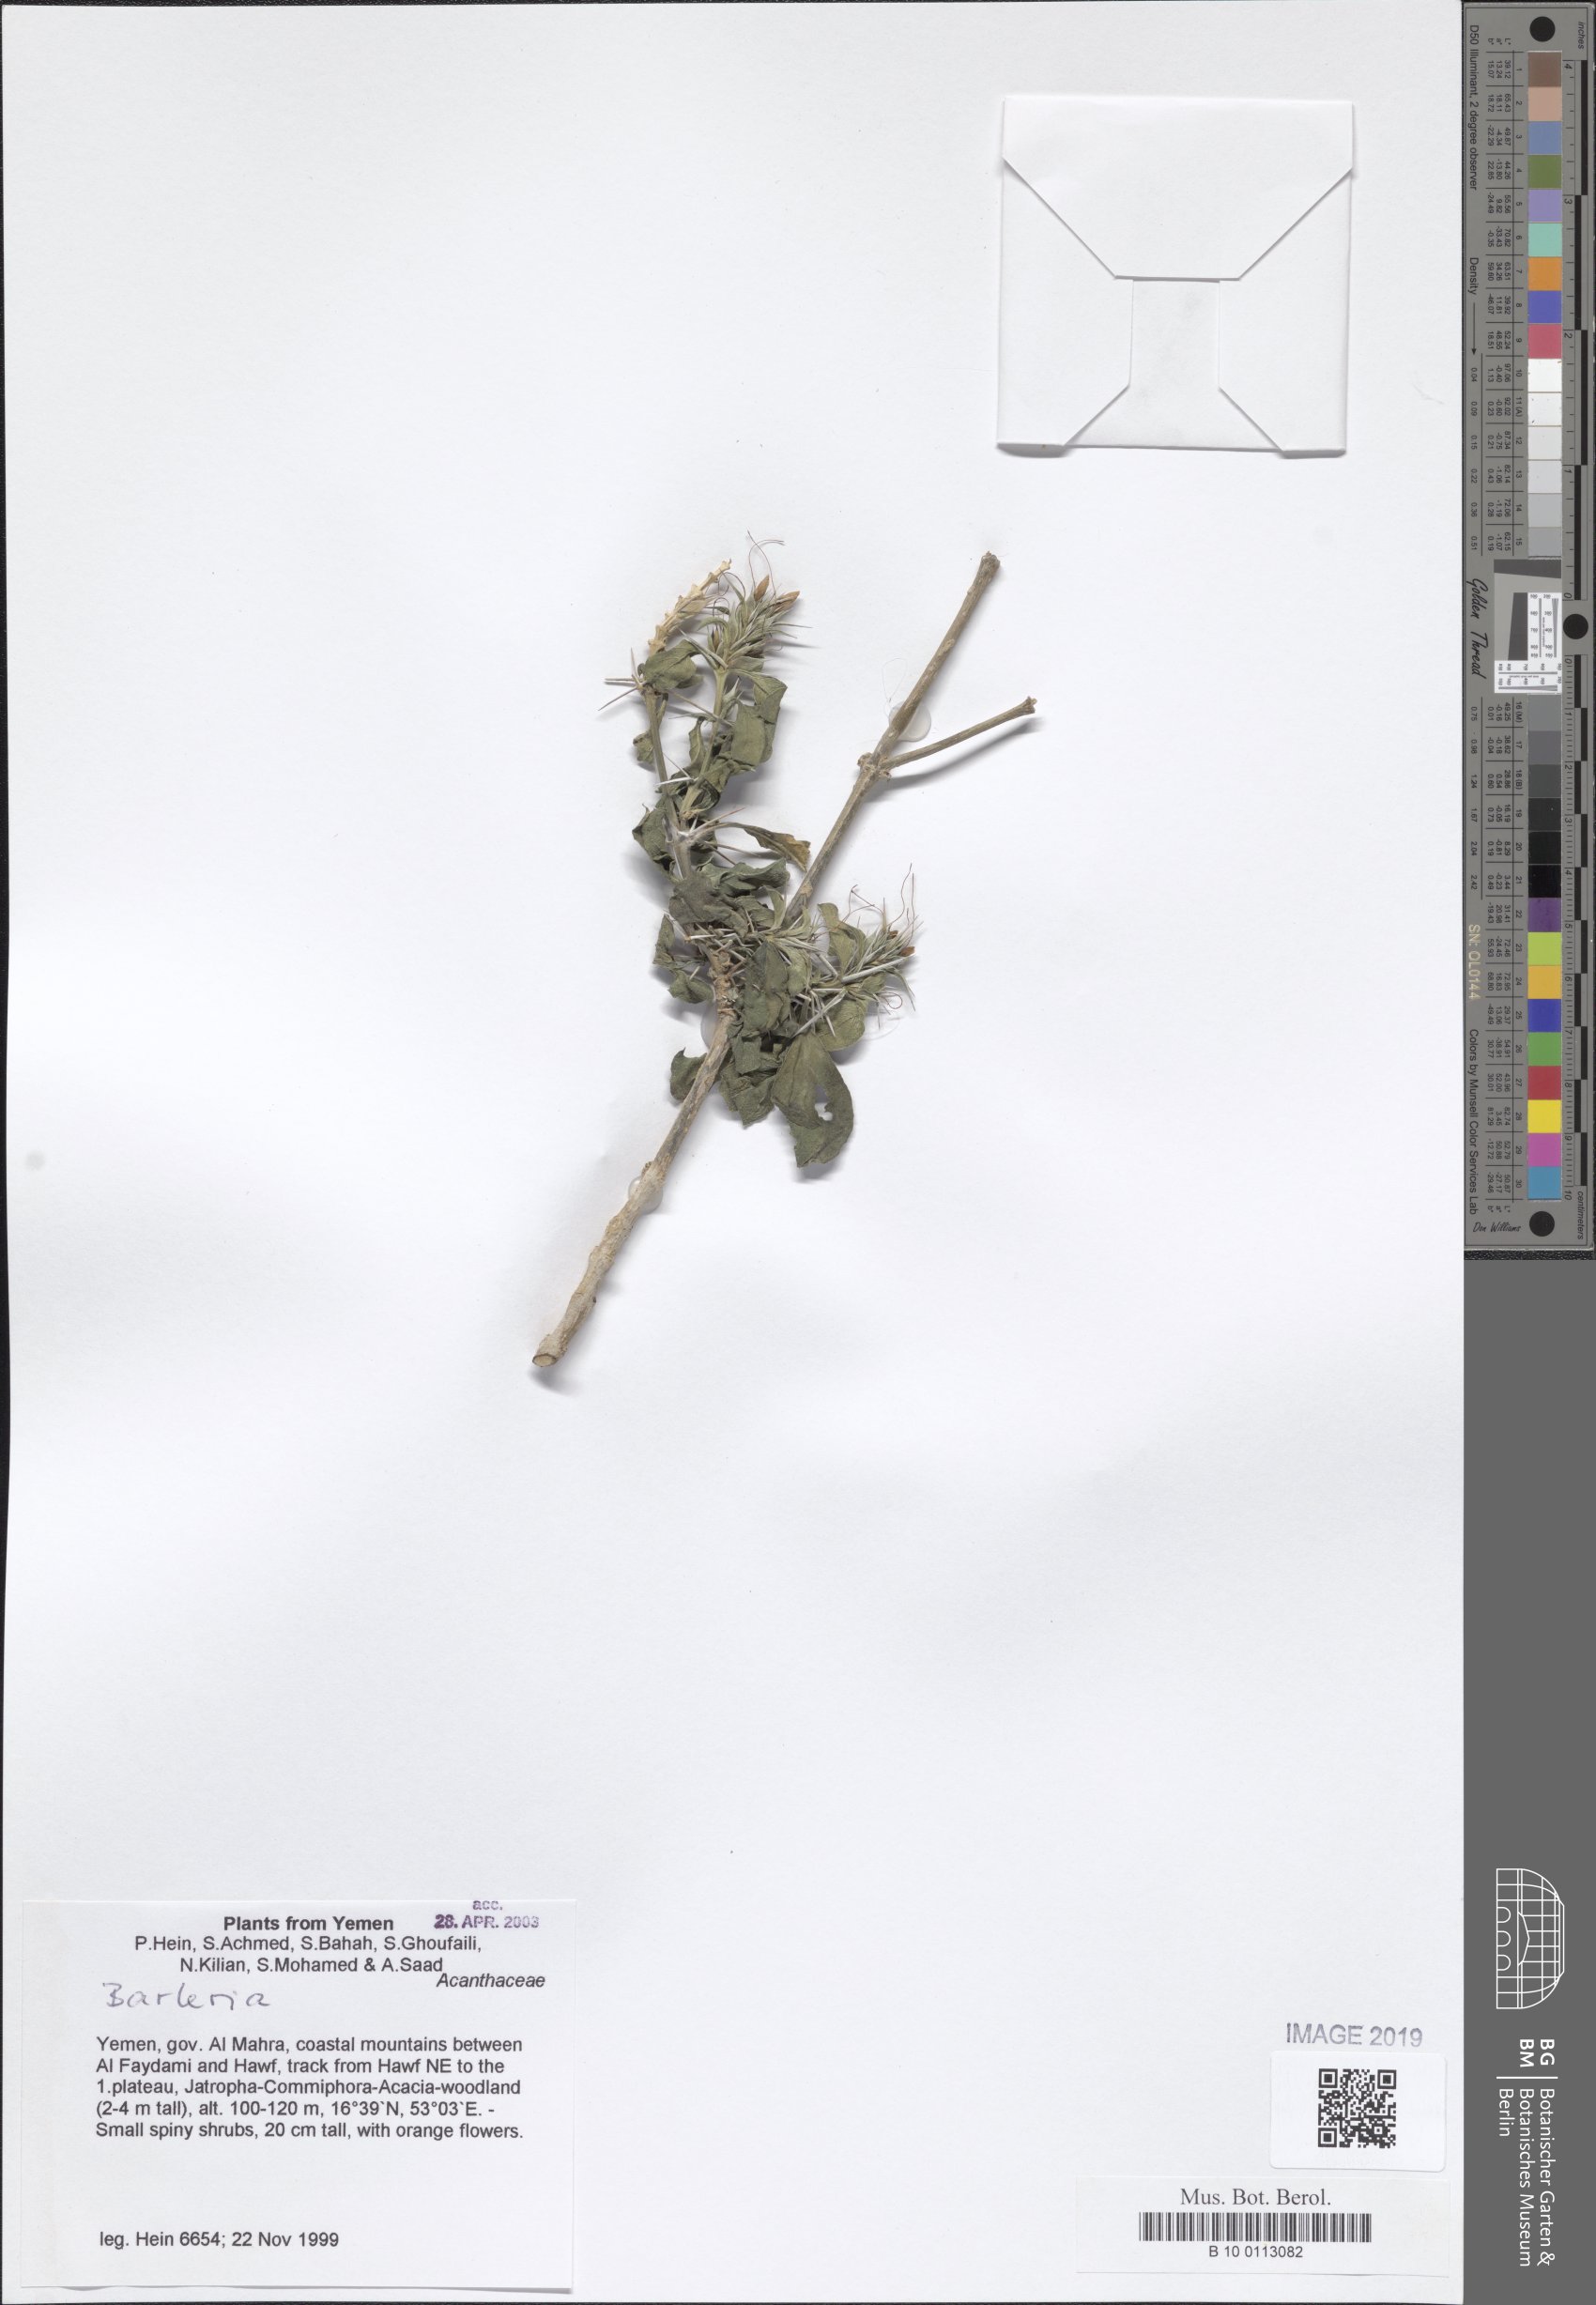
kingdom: Plantae
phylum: Tracheophyta
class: Magnoliopsida
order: Lamiales
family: Acanthaceae
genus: Barleria
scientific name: Barleria
